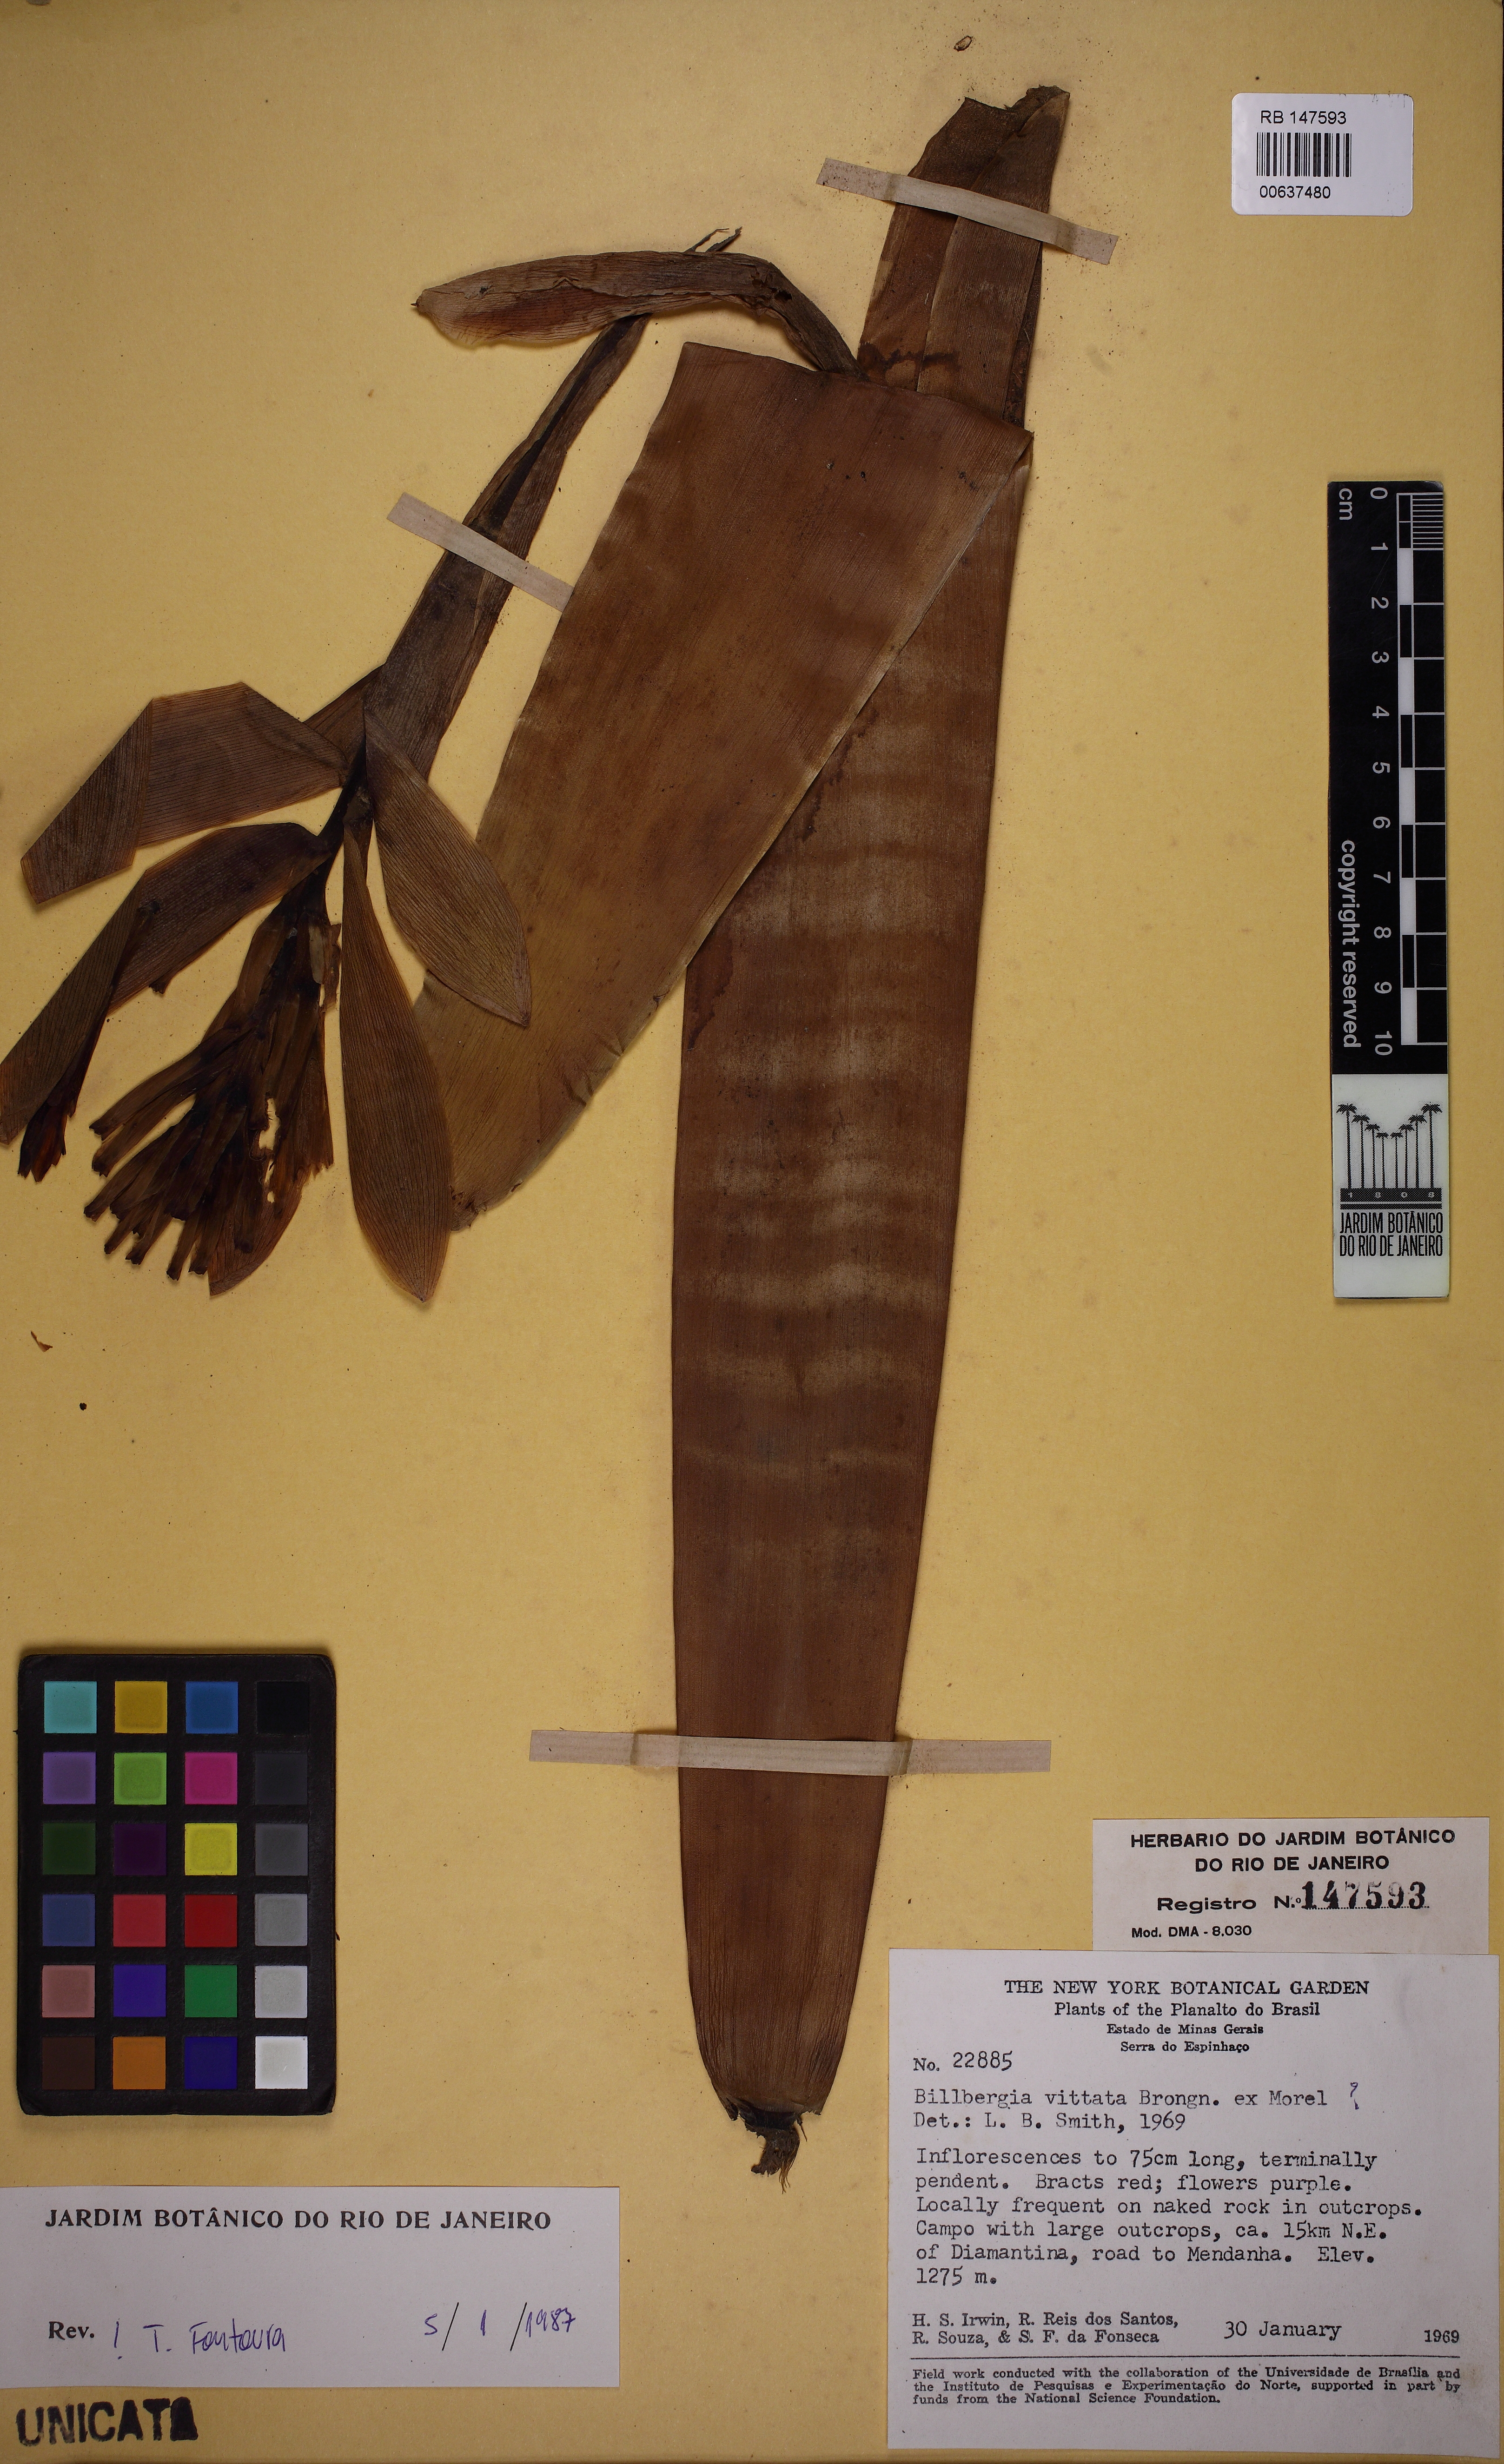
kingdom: Plantae
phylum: Tracheophyta
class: Liliopsida
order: Poales
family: Bromeliaceae
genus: Billbergia
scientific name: Billbergia vittata
